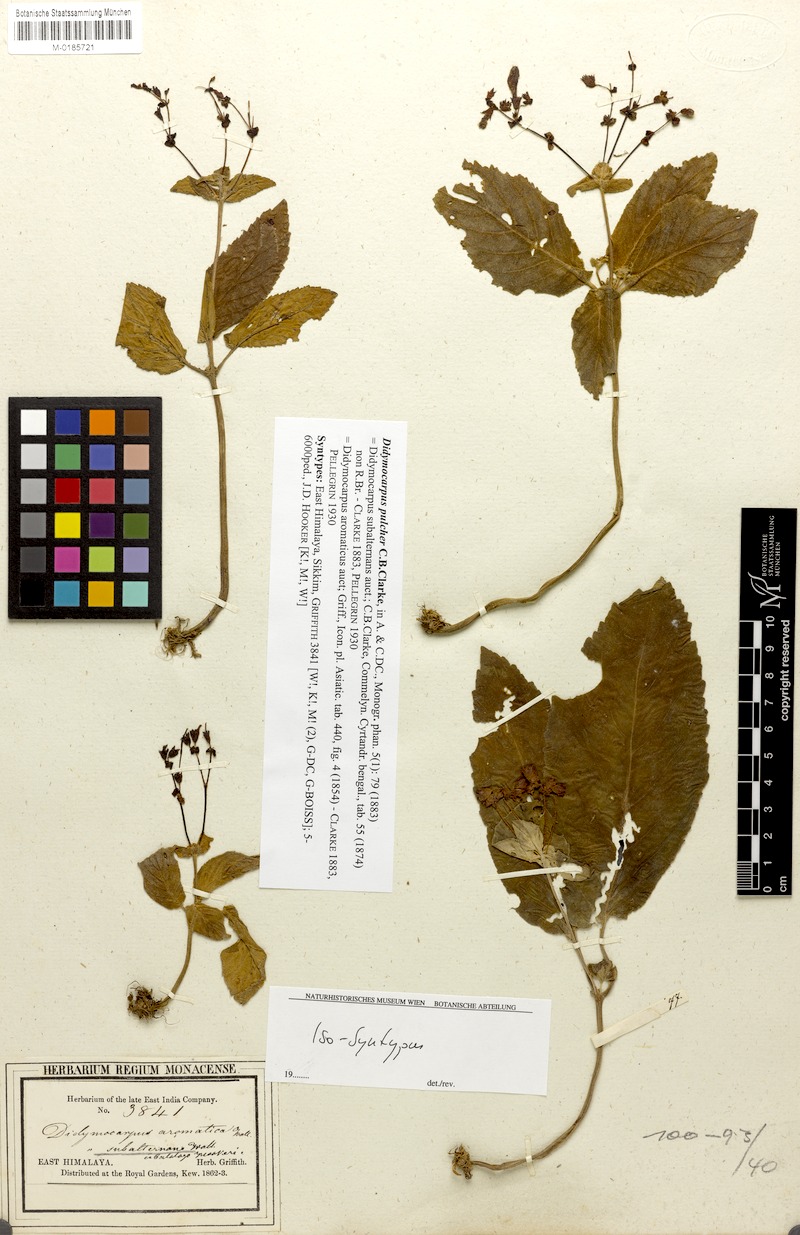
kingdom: Plantae
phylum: Tracheophyta
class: Magnoliopsida
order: Lamiales
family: Gesneriaceae
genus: Didymocarpus
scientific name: Didymocarpus punduanus
